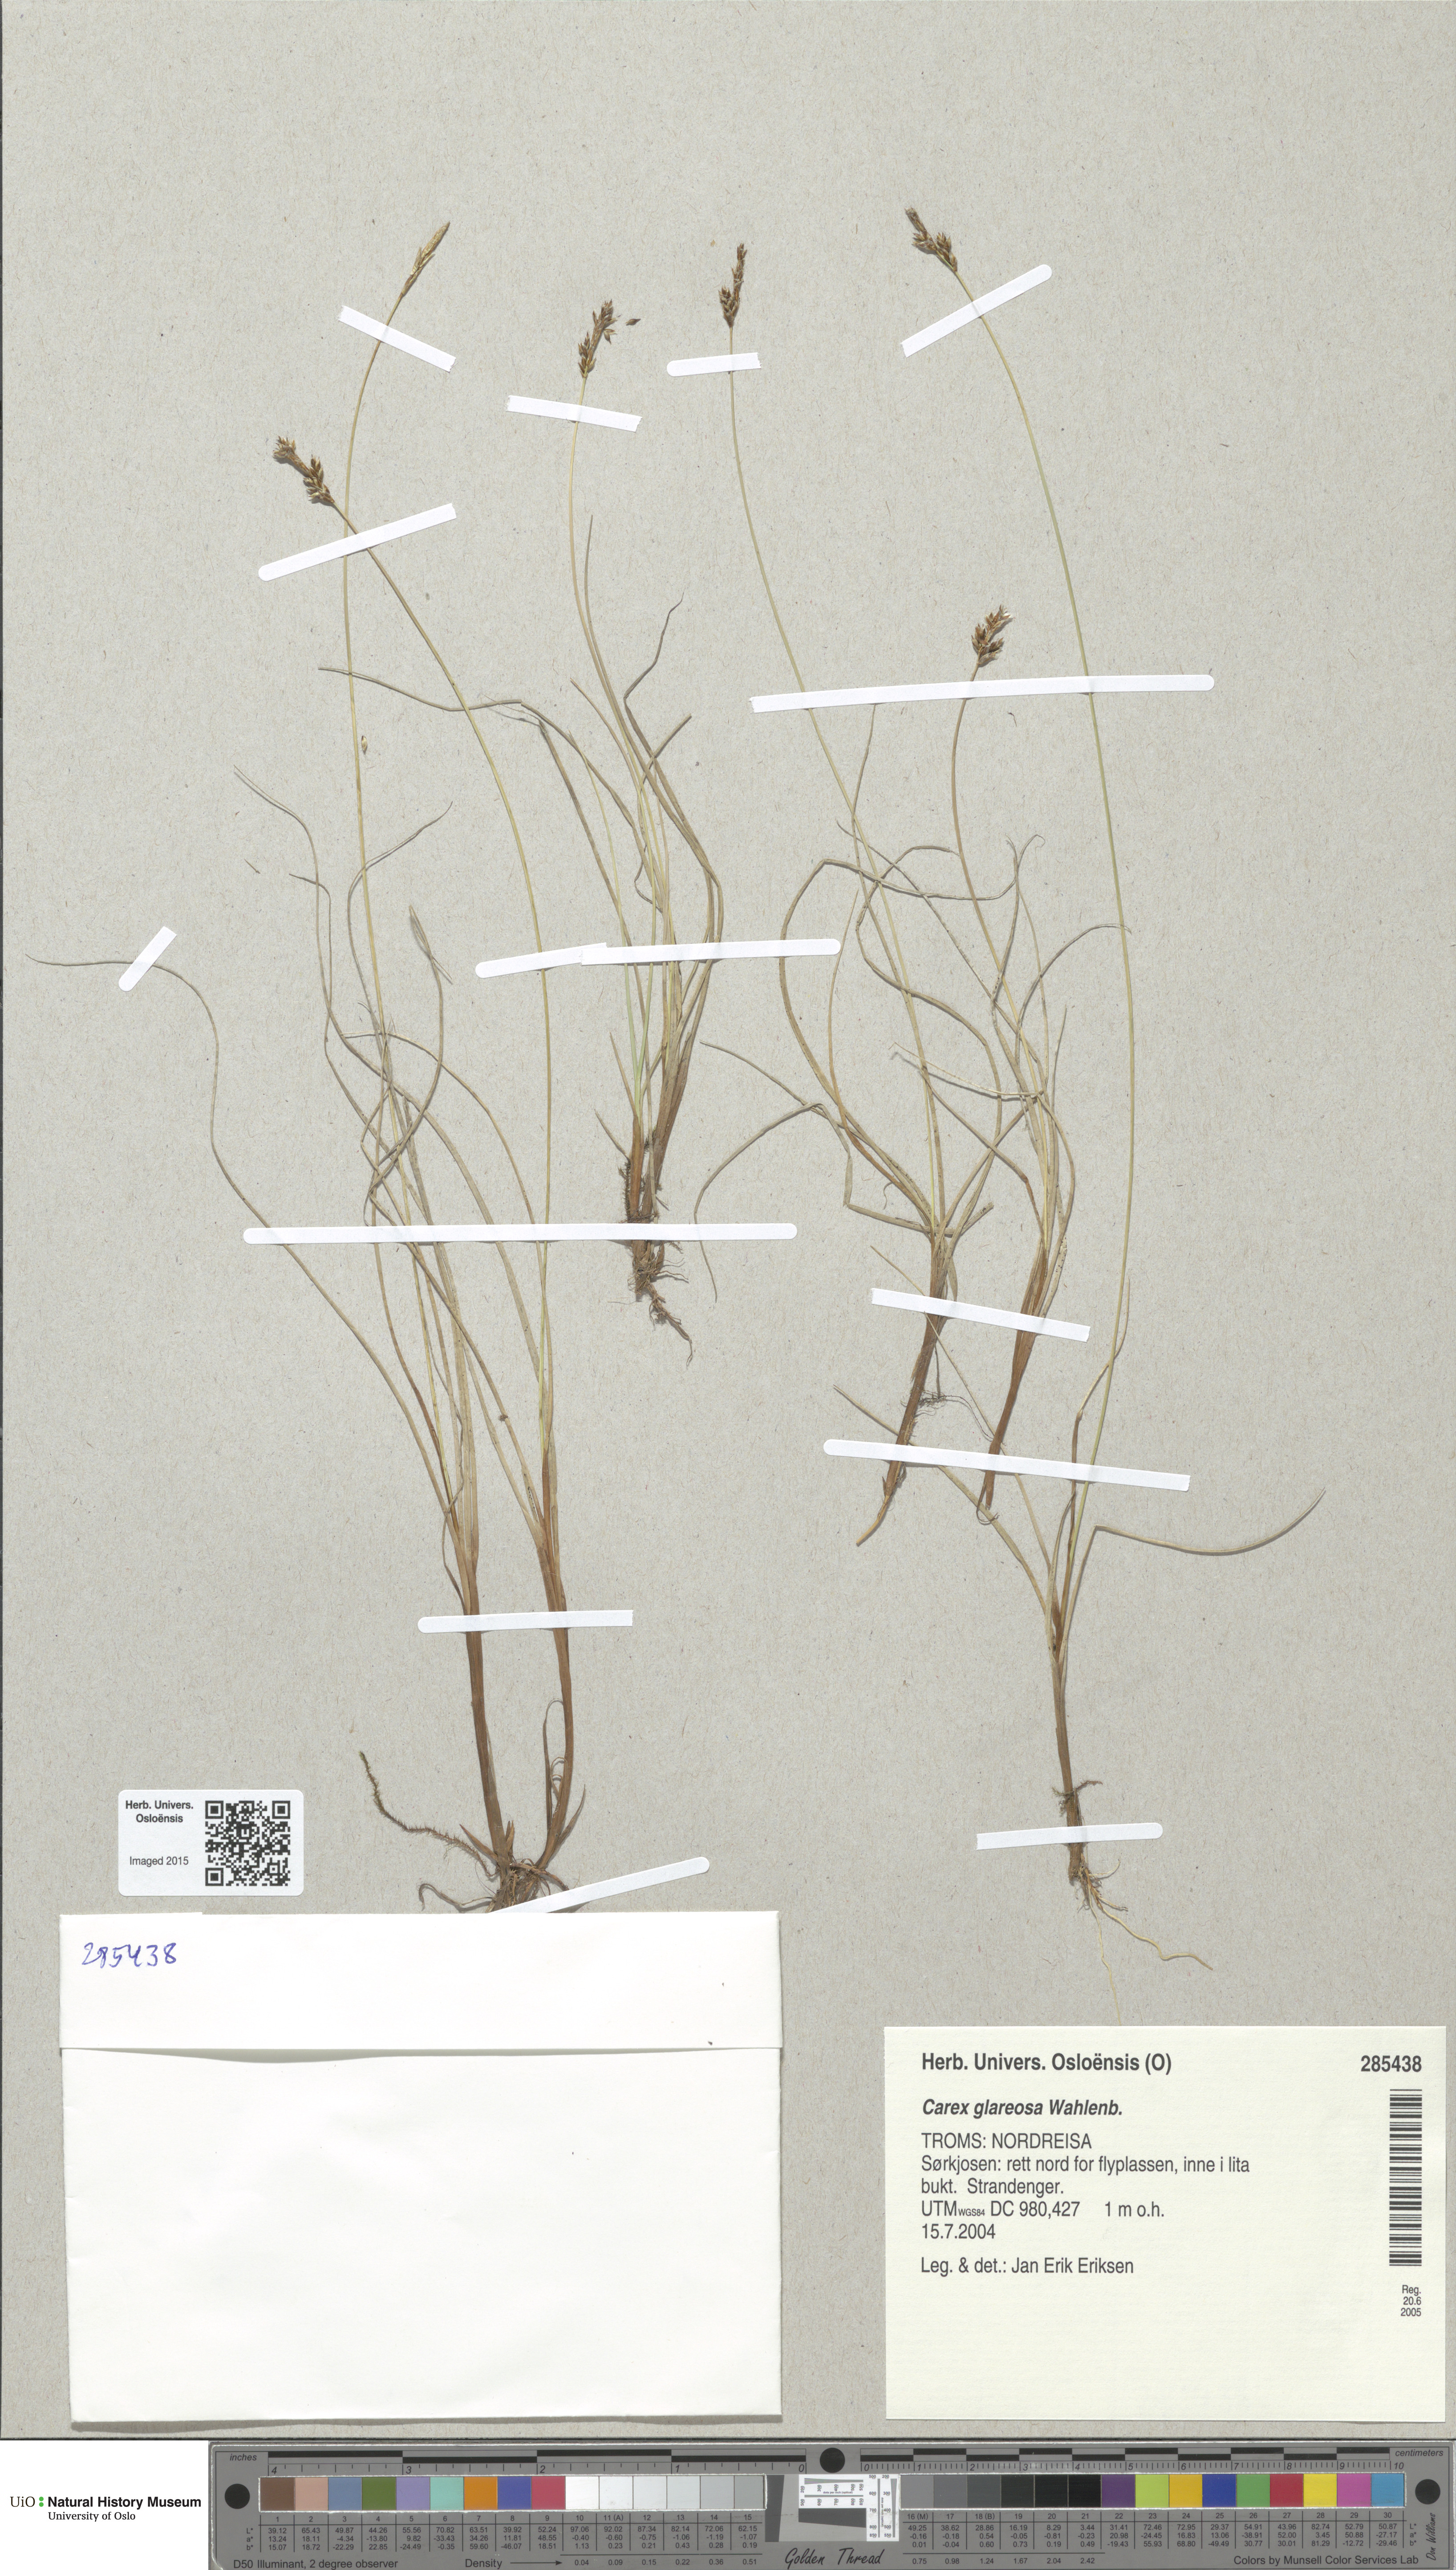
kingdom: Plantae
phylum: Tracheophyta
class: Liliopsida
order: Poales
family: Cyperaceae
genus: Carex
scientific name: Carex glareosa
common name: Clustered sedge
